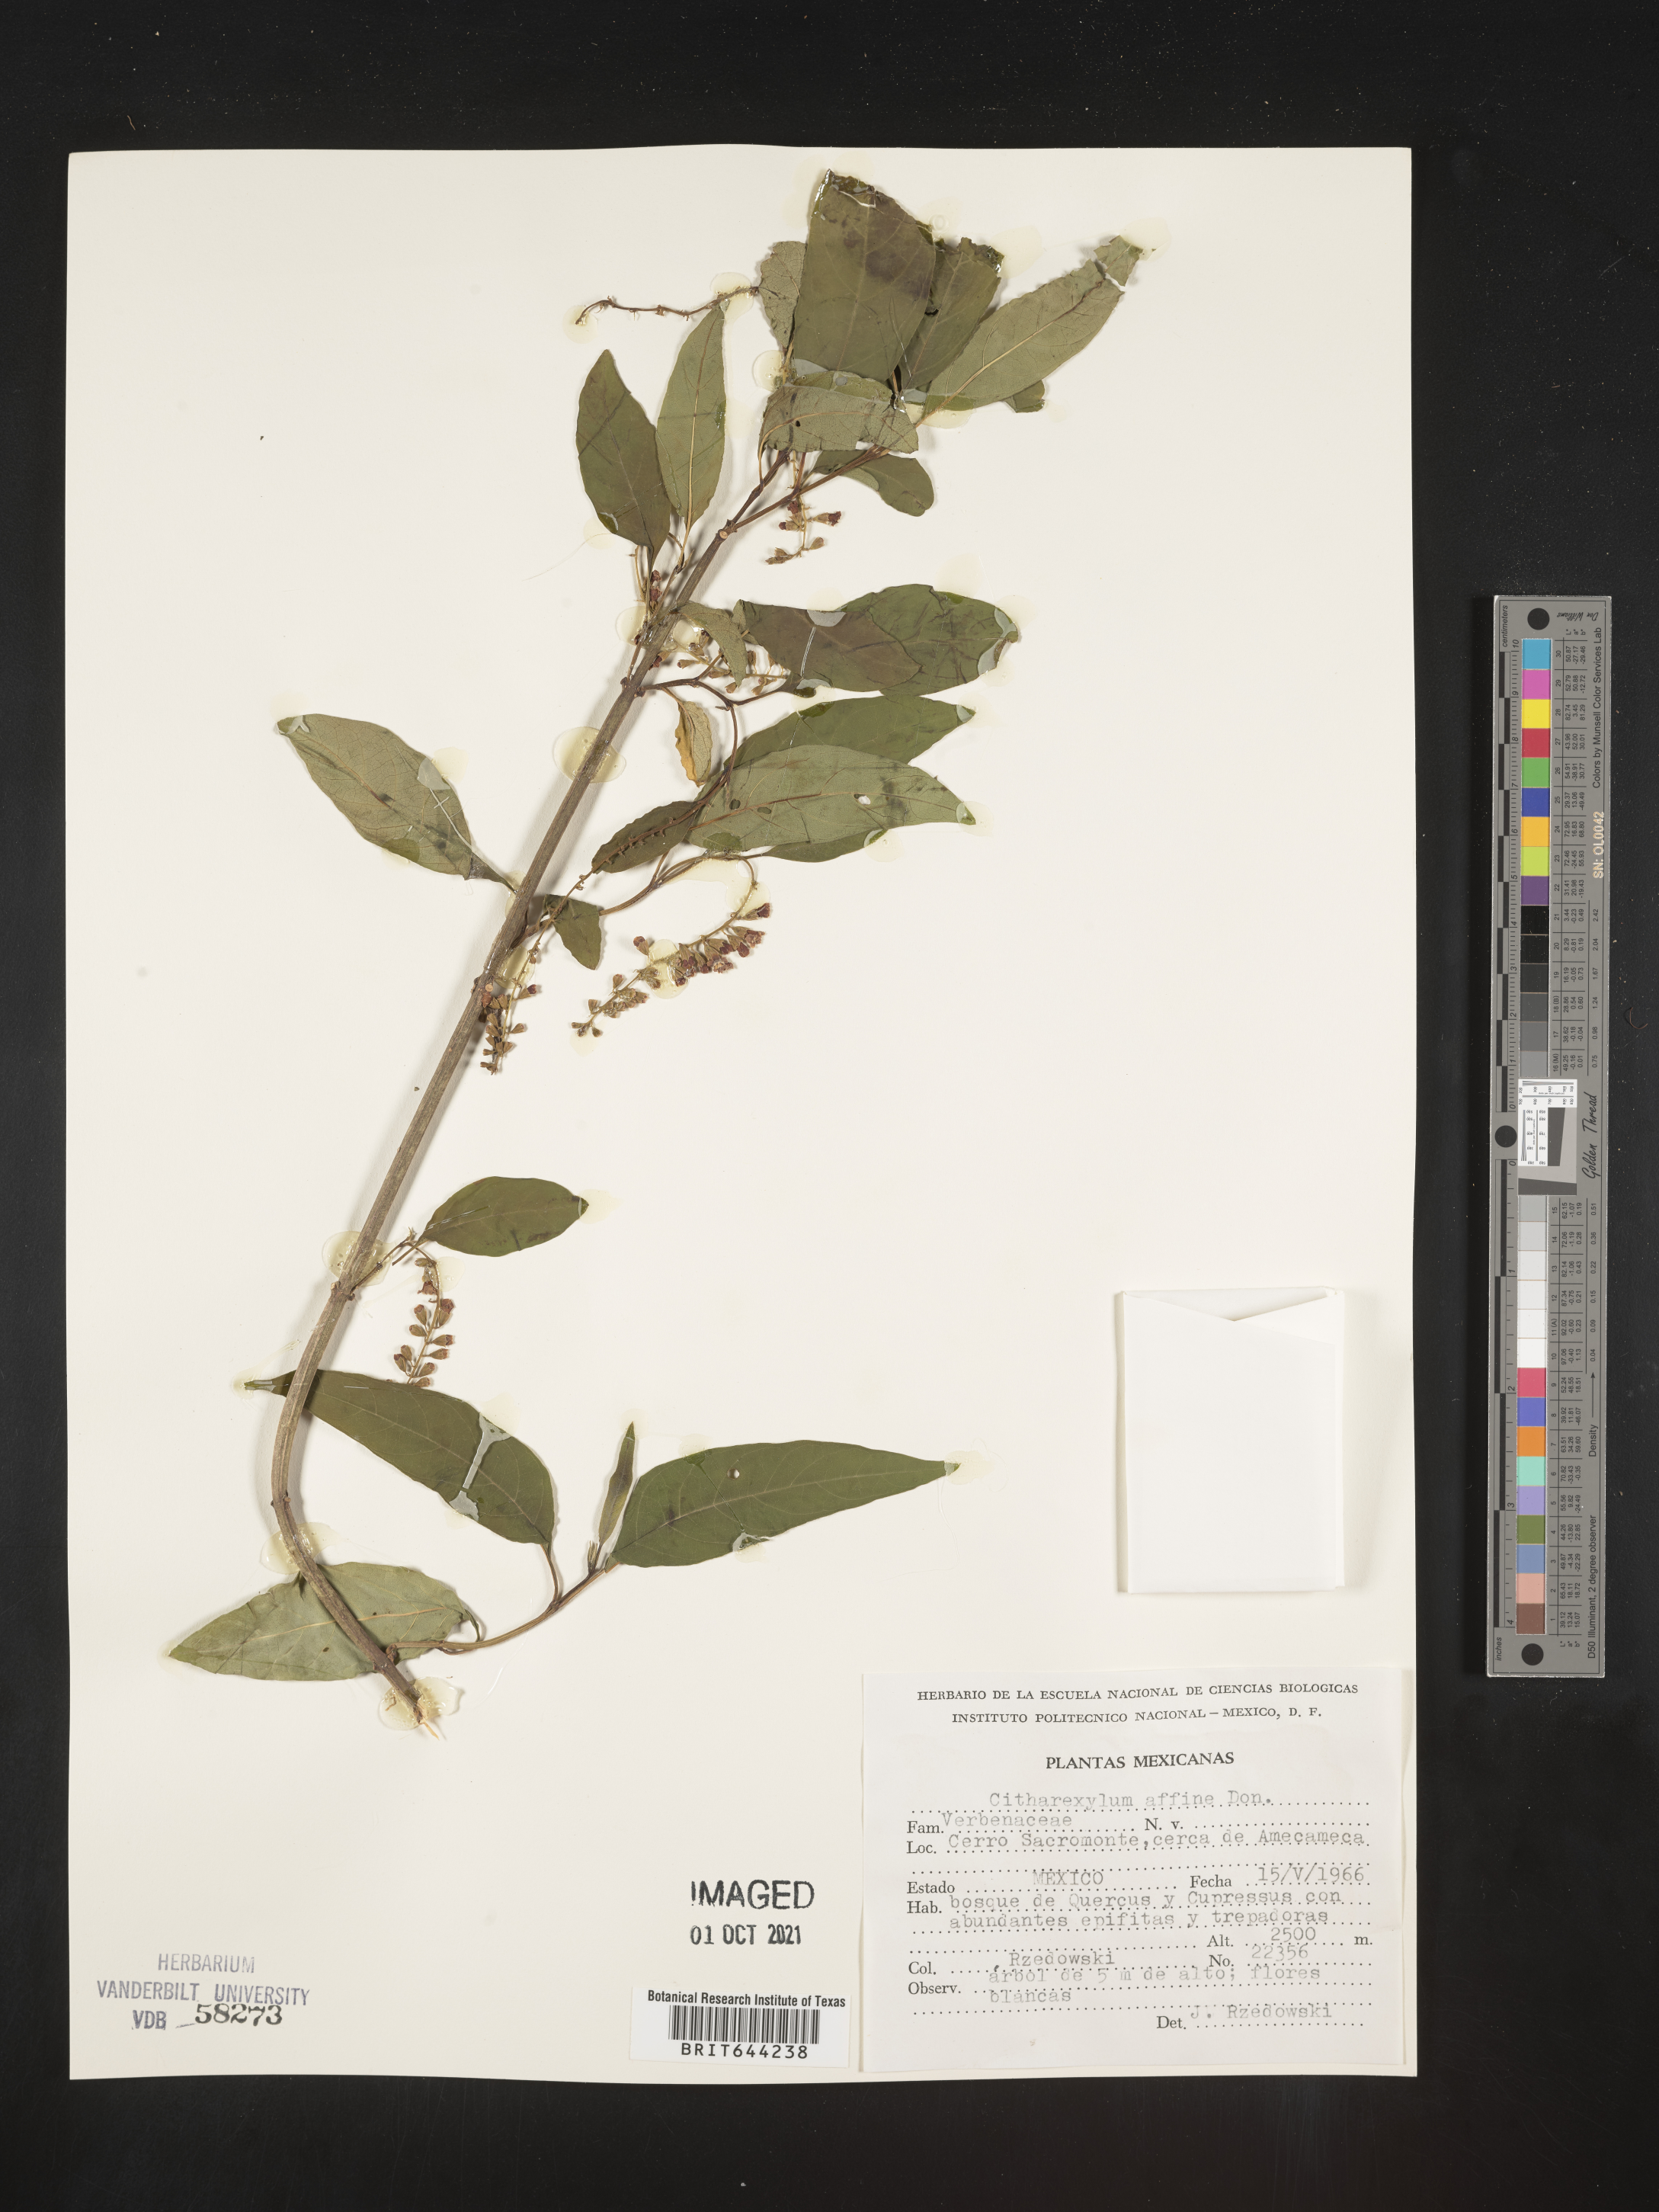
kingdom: Plantae
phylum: Tracheophyta
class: Magnoliopsida
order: Lamiales
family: Verbenaceae
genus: Citharexylum
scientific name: Citharexylum
